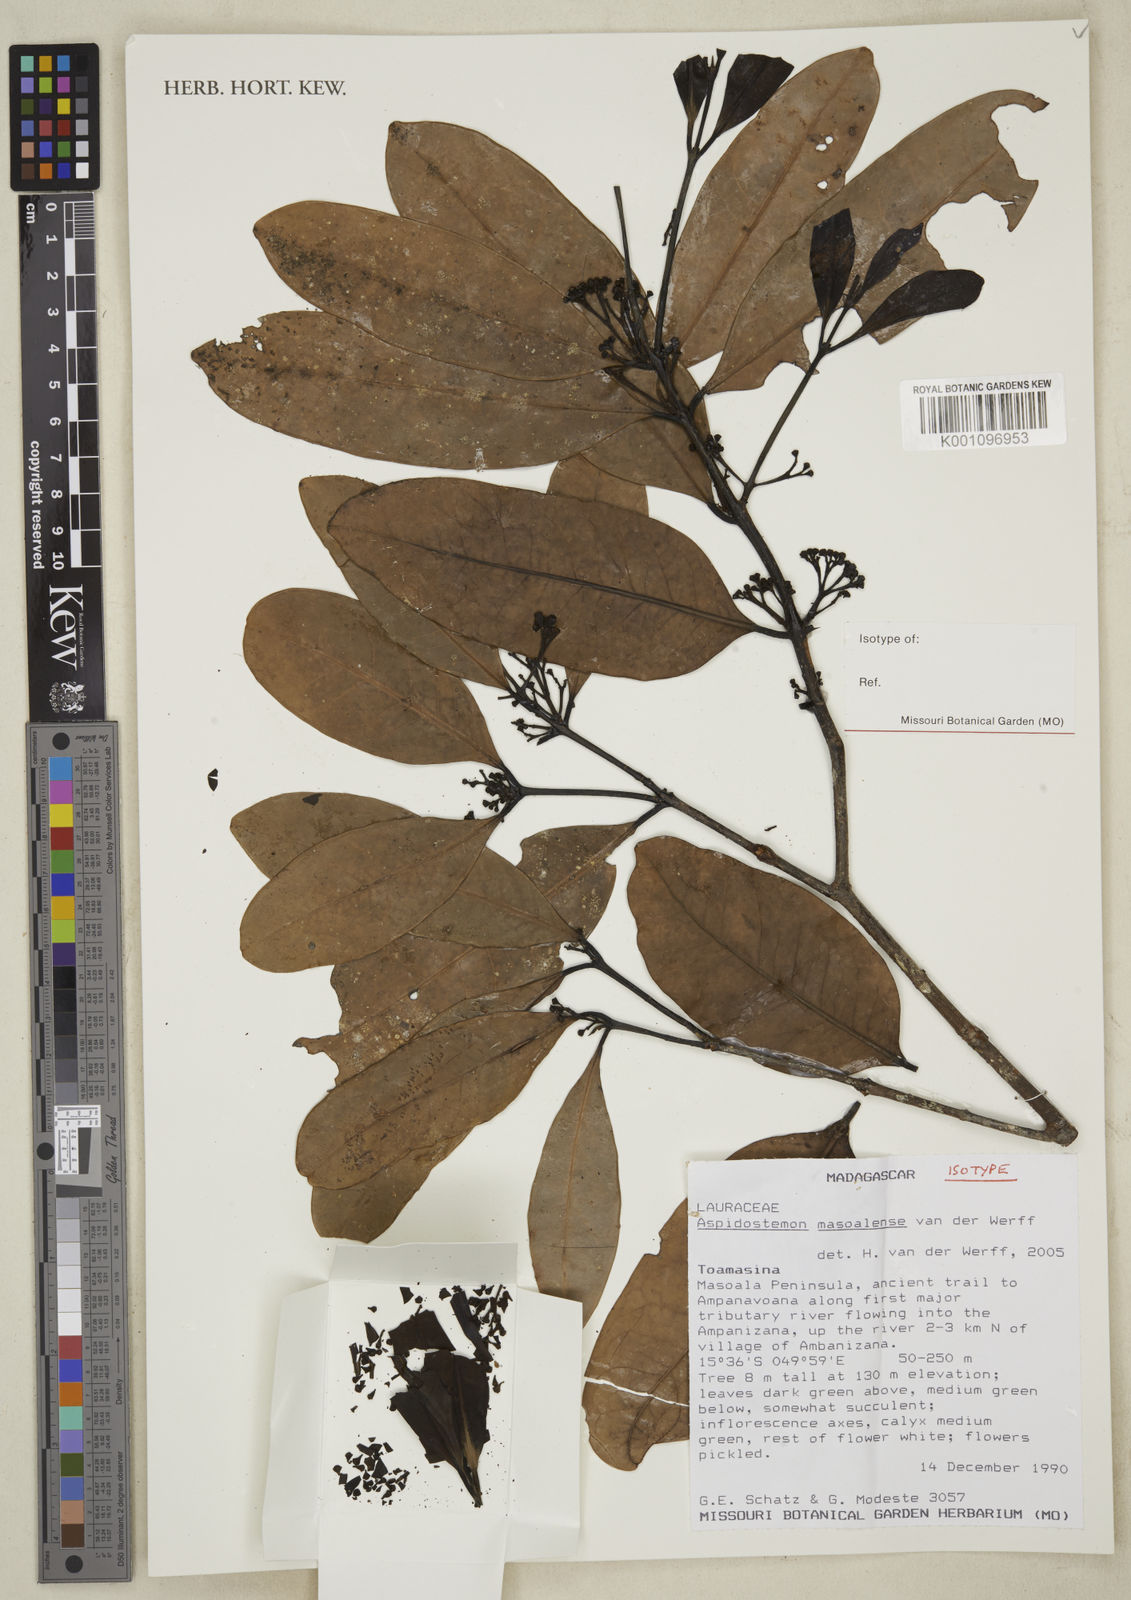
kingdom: Plantae
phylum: Tracheophyta
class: Magnoliopsida
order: Laurales
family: Lauraceae
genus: Aspidostemon
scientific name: Aspidostemon masoalensis
